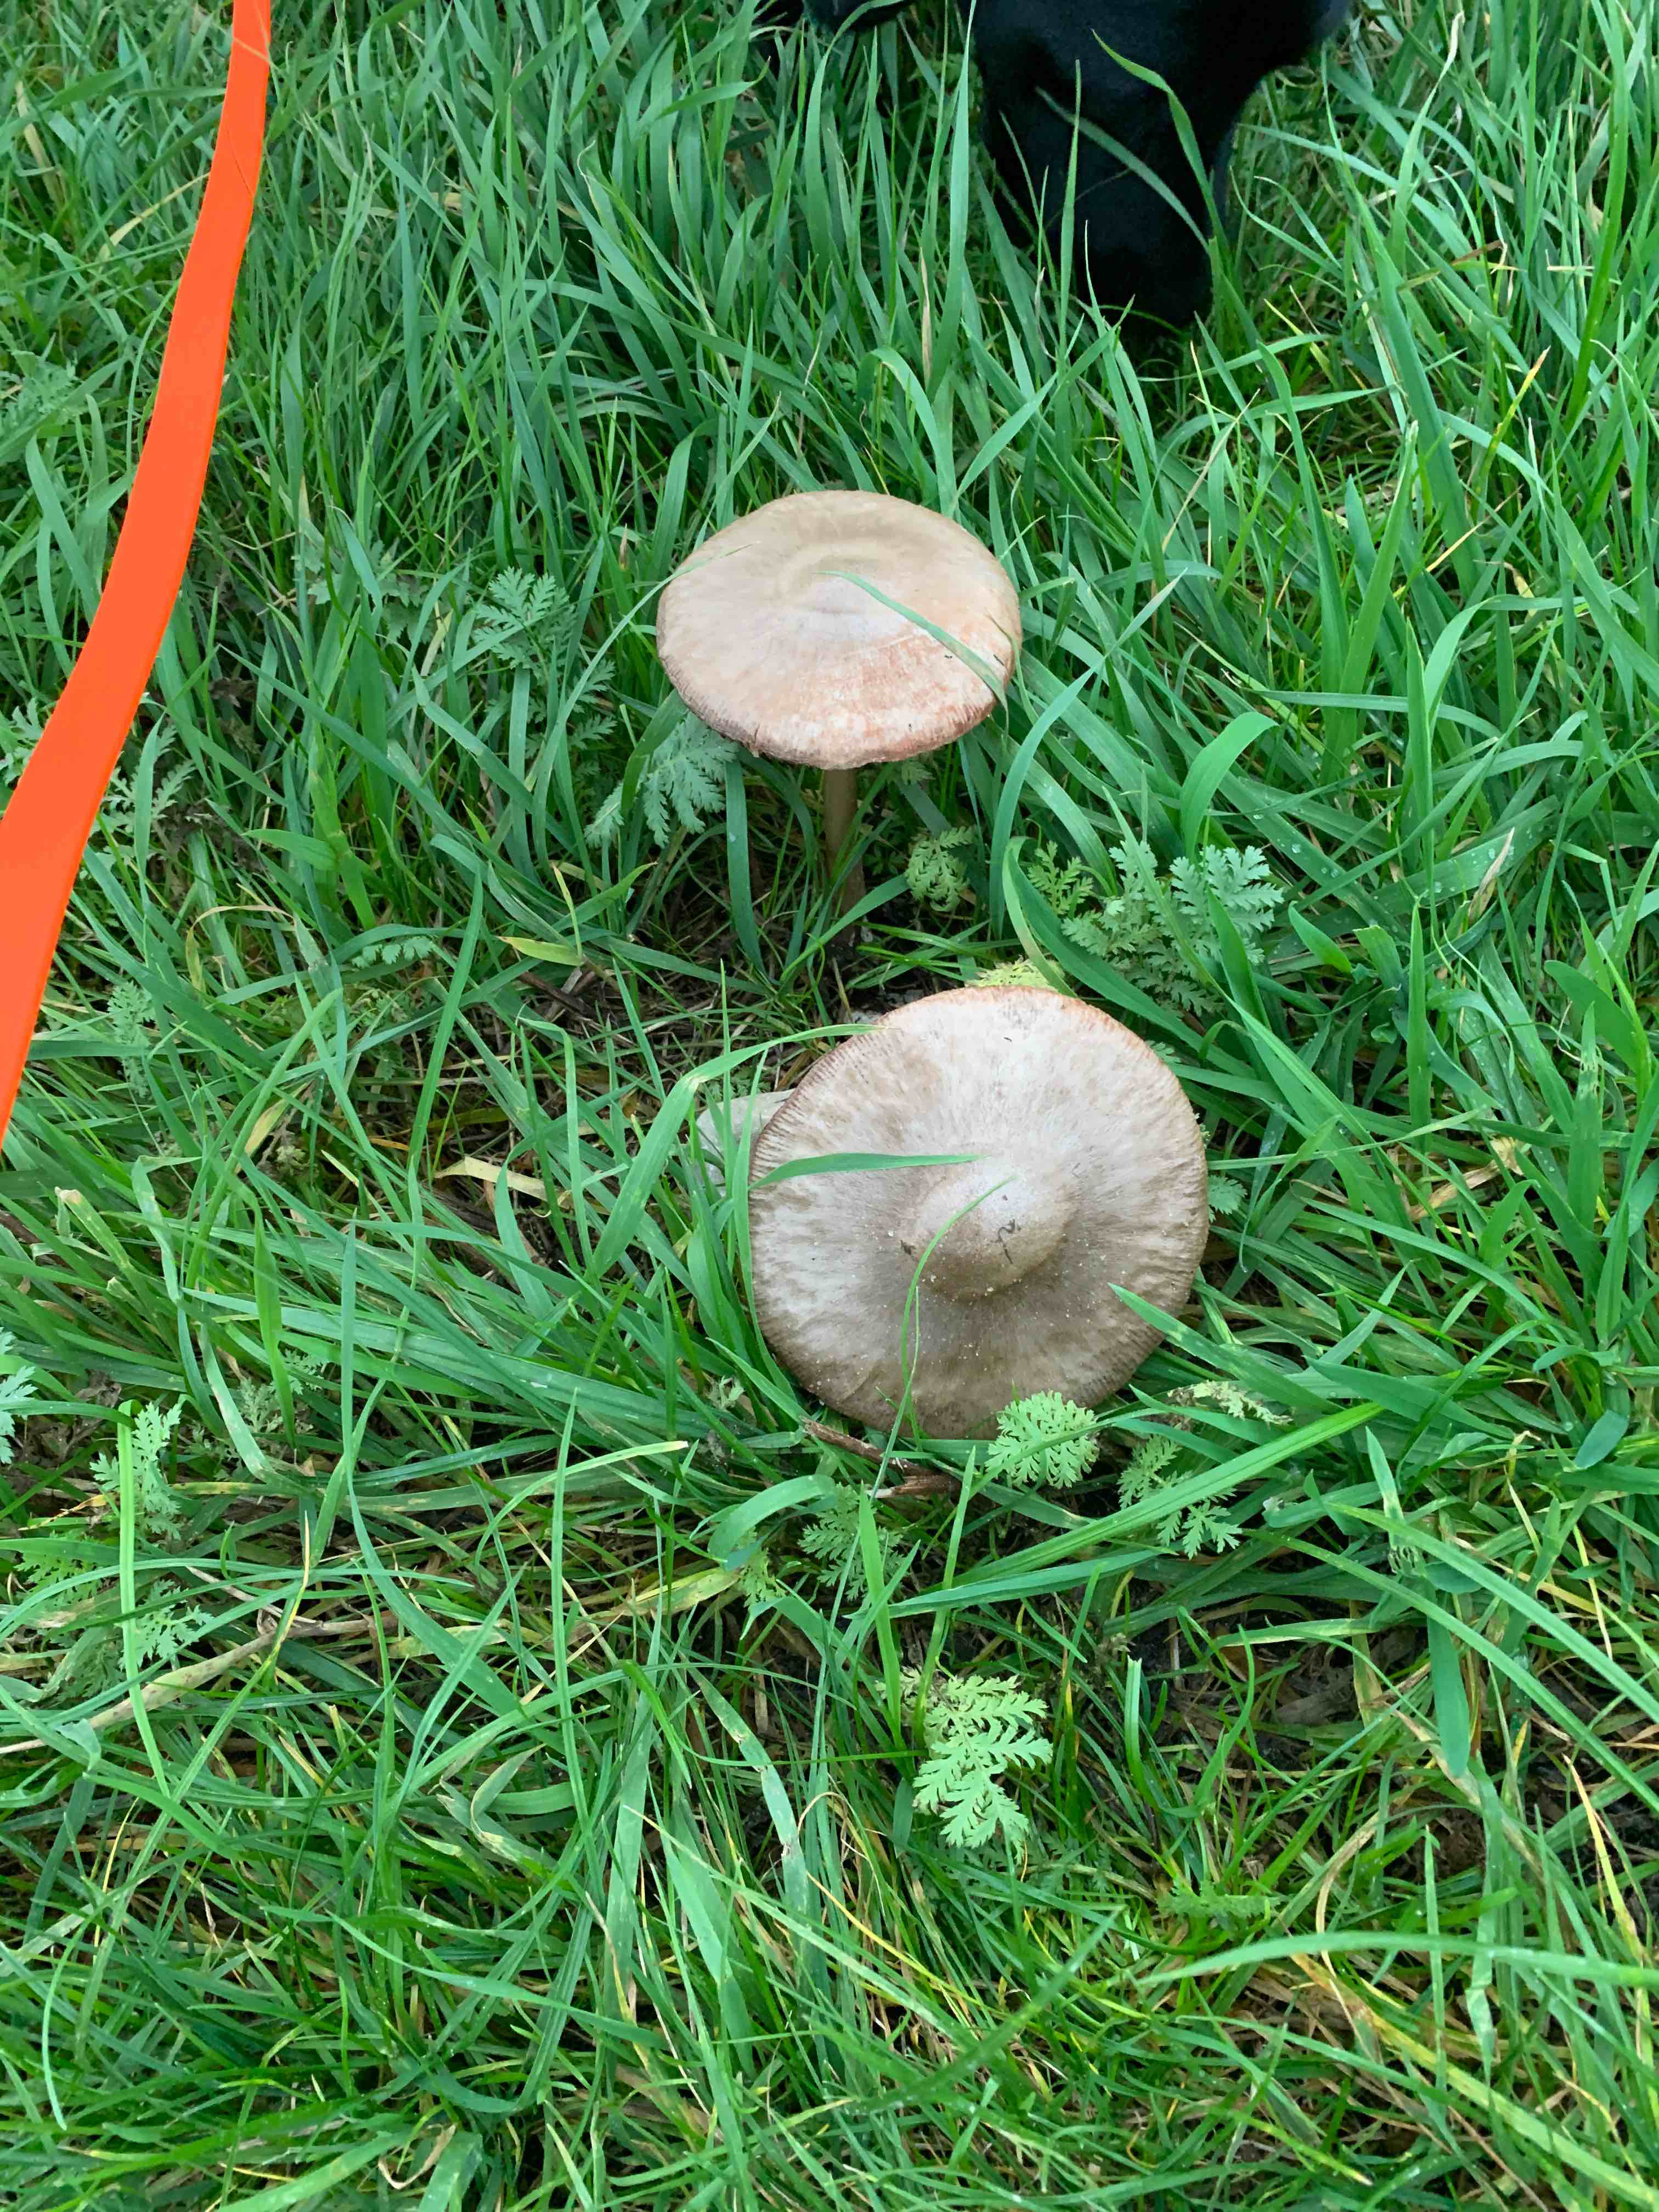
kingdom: Fungi
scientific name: Fungi
